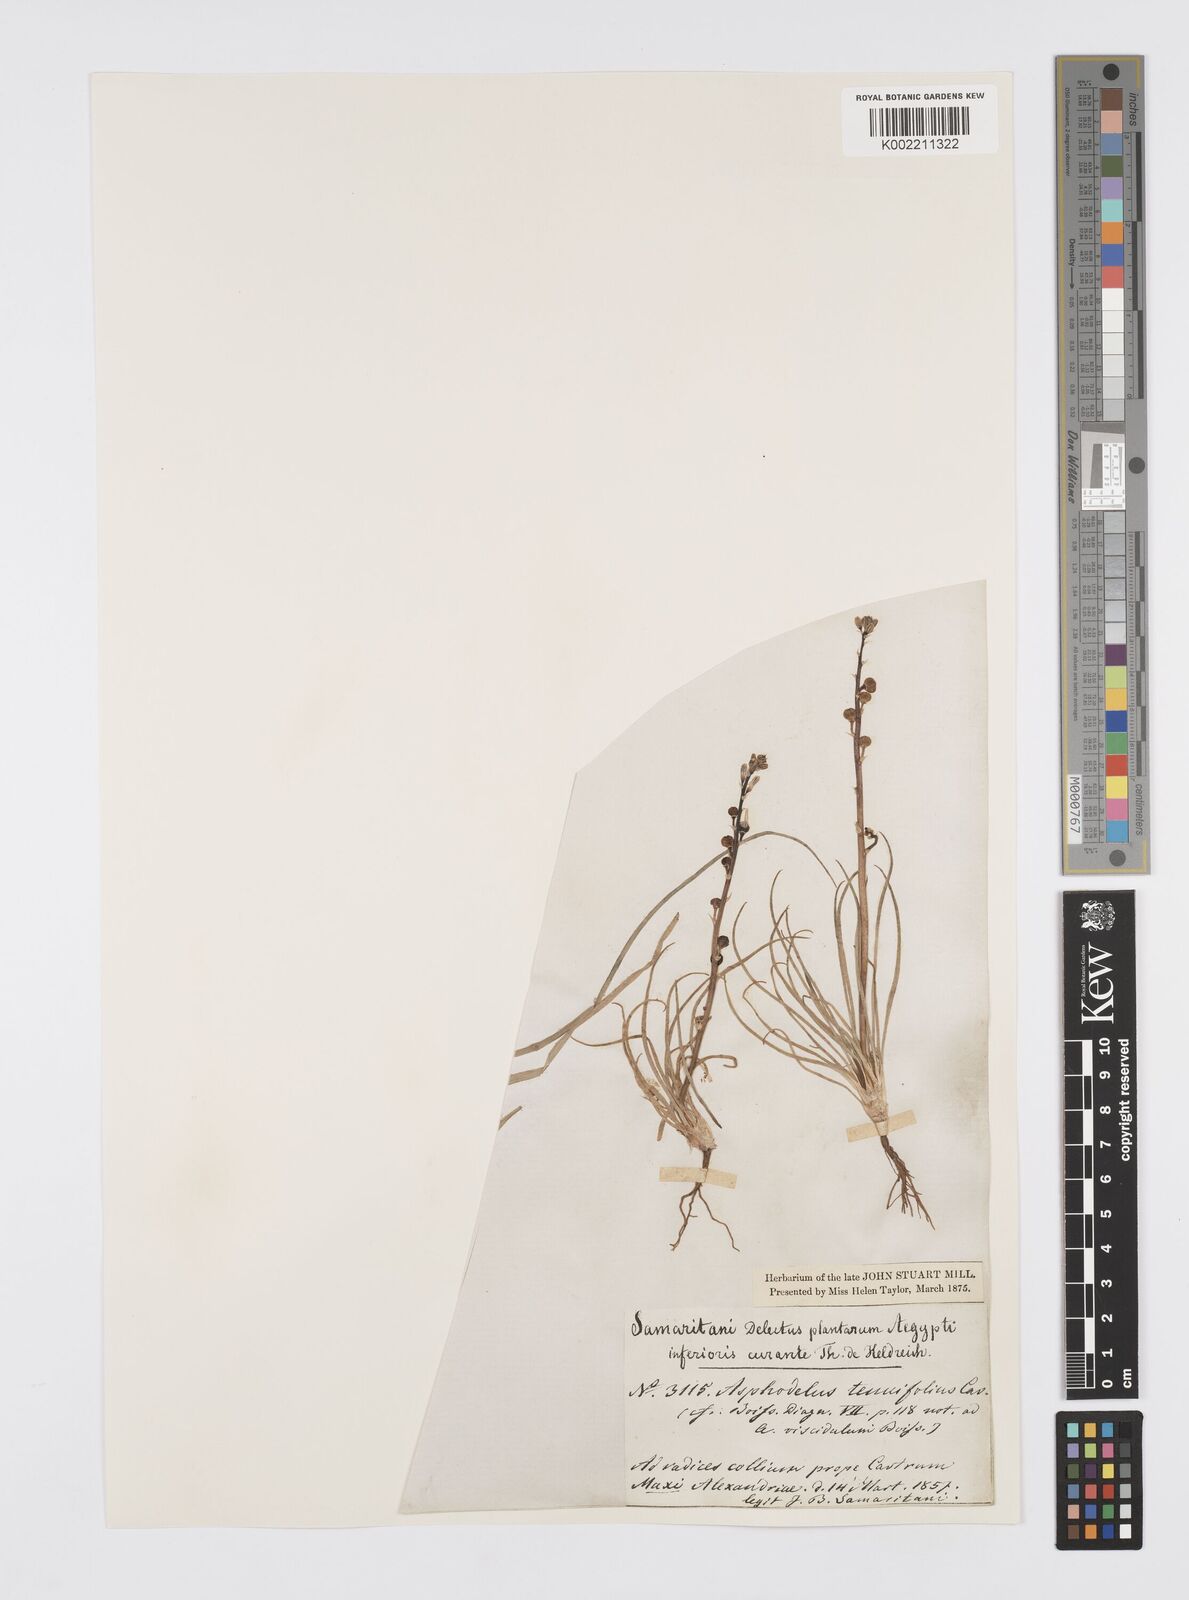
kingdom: Plantae
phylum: Tracheophyta
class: Liliopsida
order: Asparagales
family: Asphodelaceae
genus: Asphodelus
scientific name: Asphodelus tenuifolius
